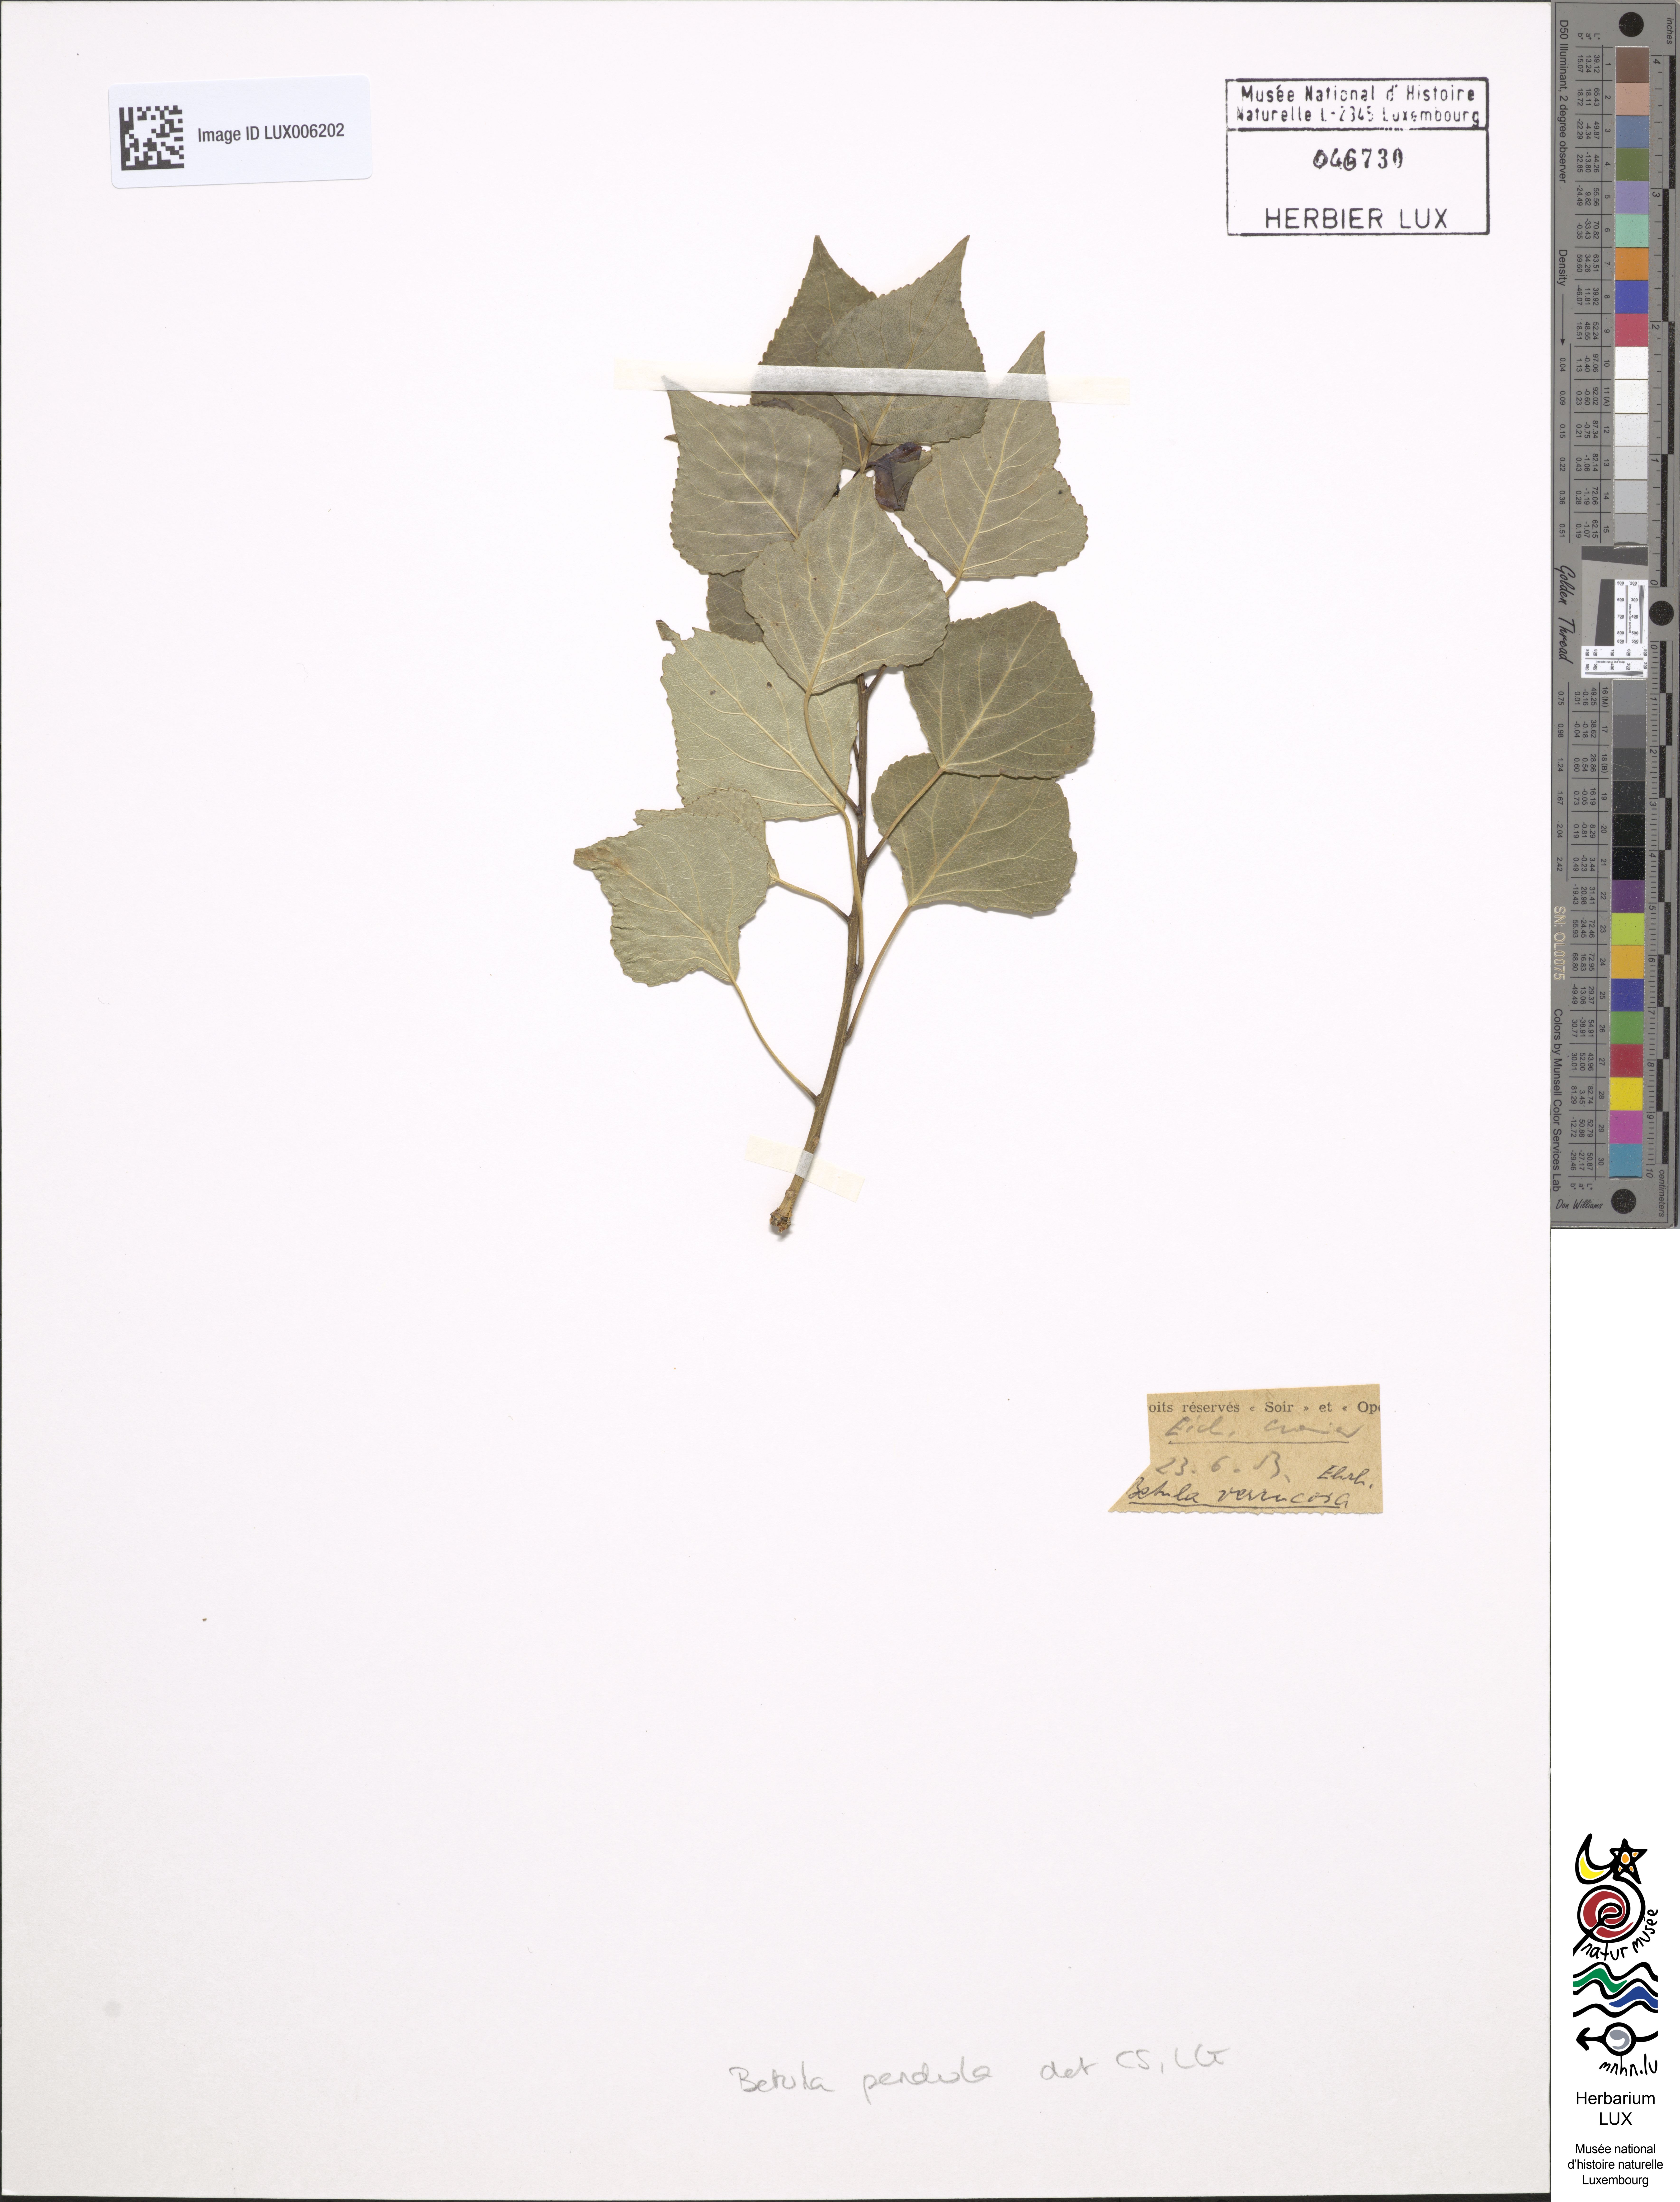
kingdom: Plantae
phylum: Tracheophyta
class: Magnoliopsida
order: Fagales
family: Betulaceae
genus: Betula
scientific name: Betula pendula
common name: Silver birch
